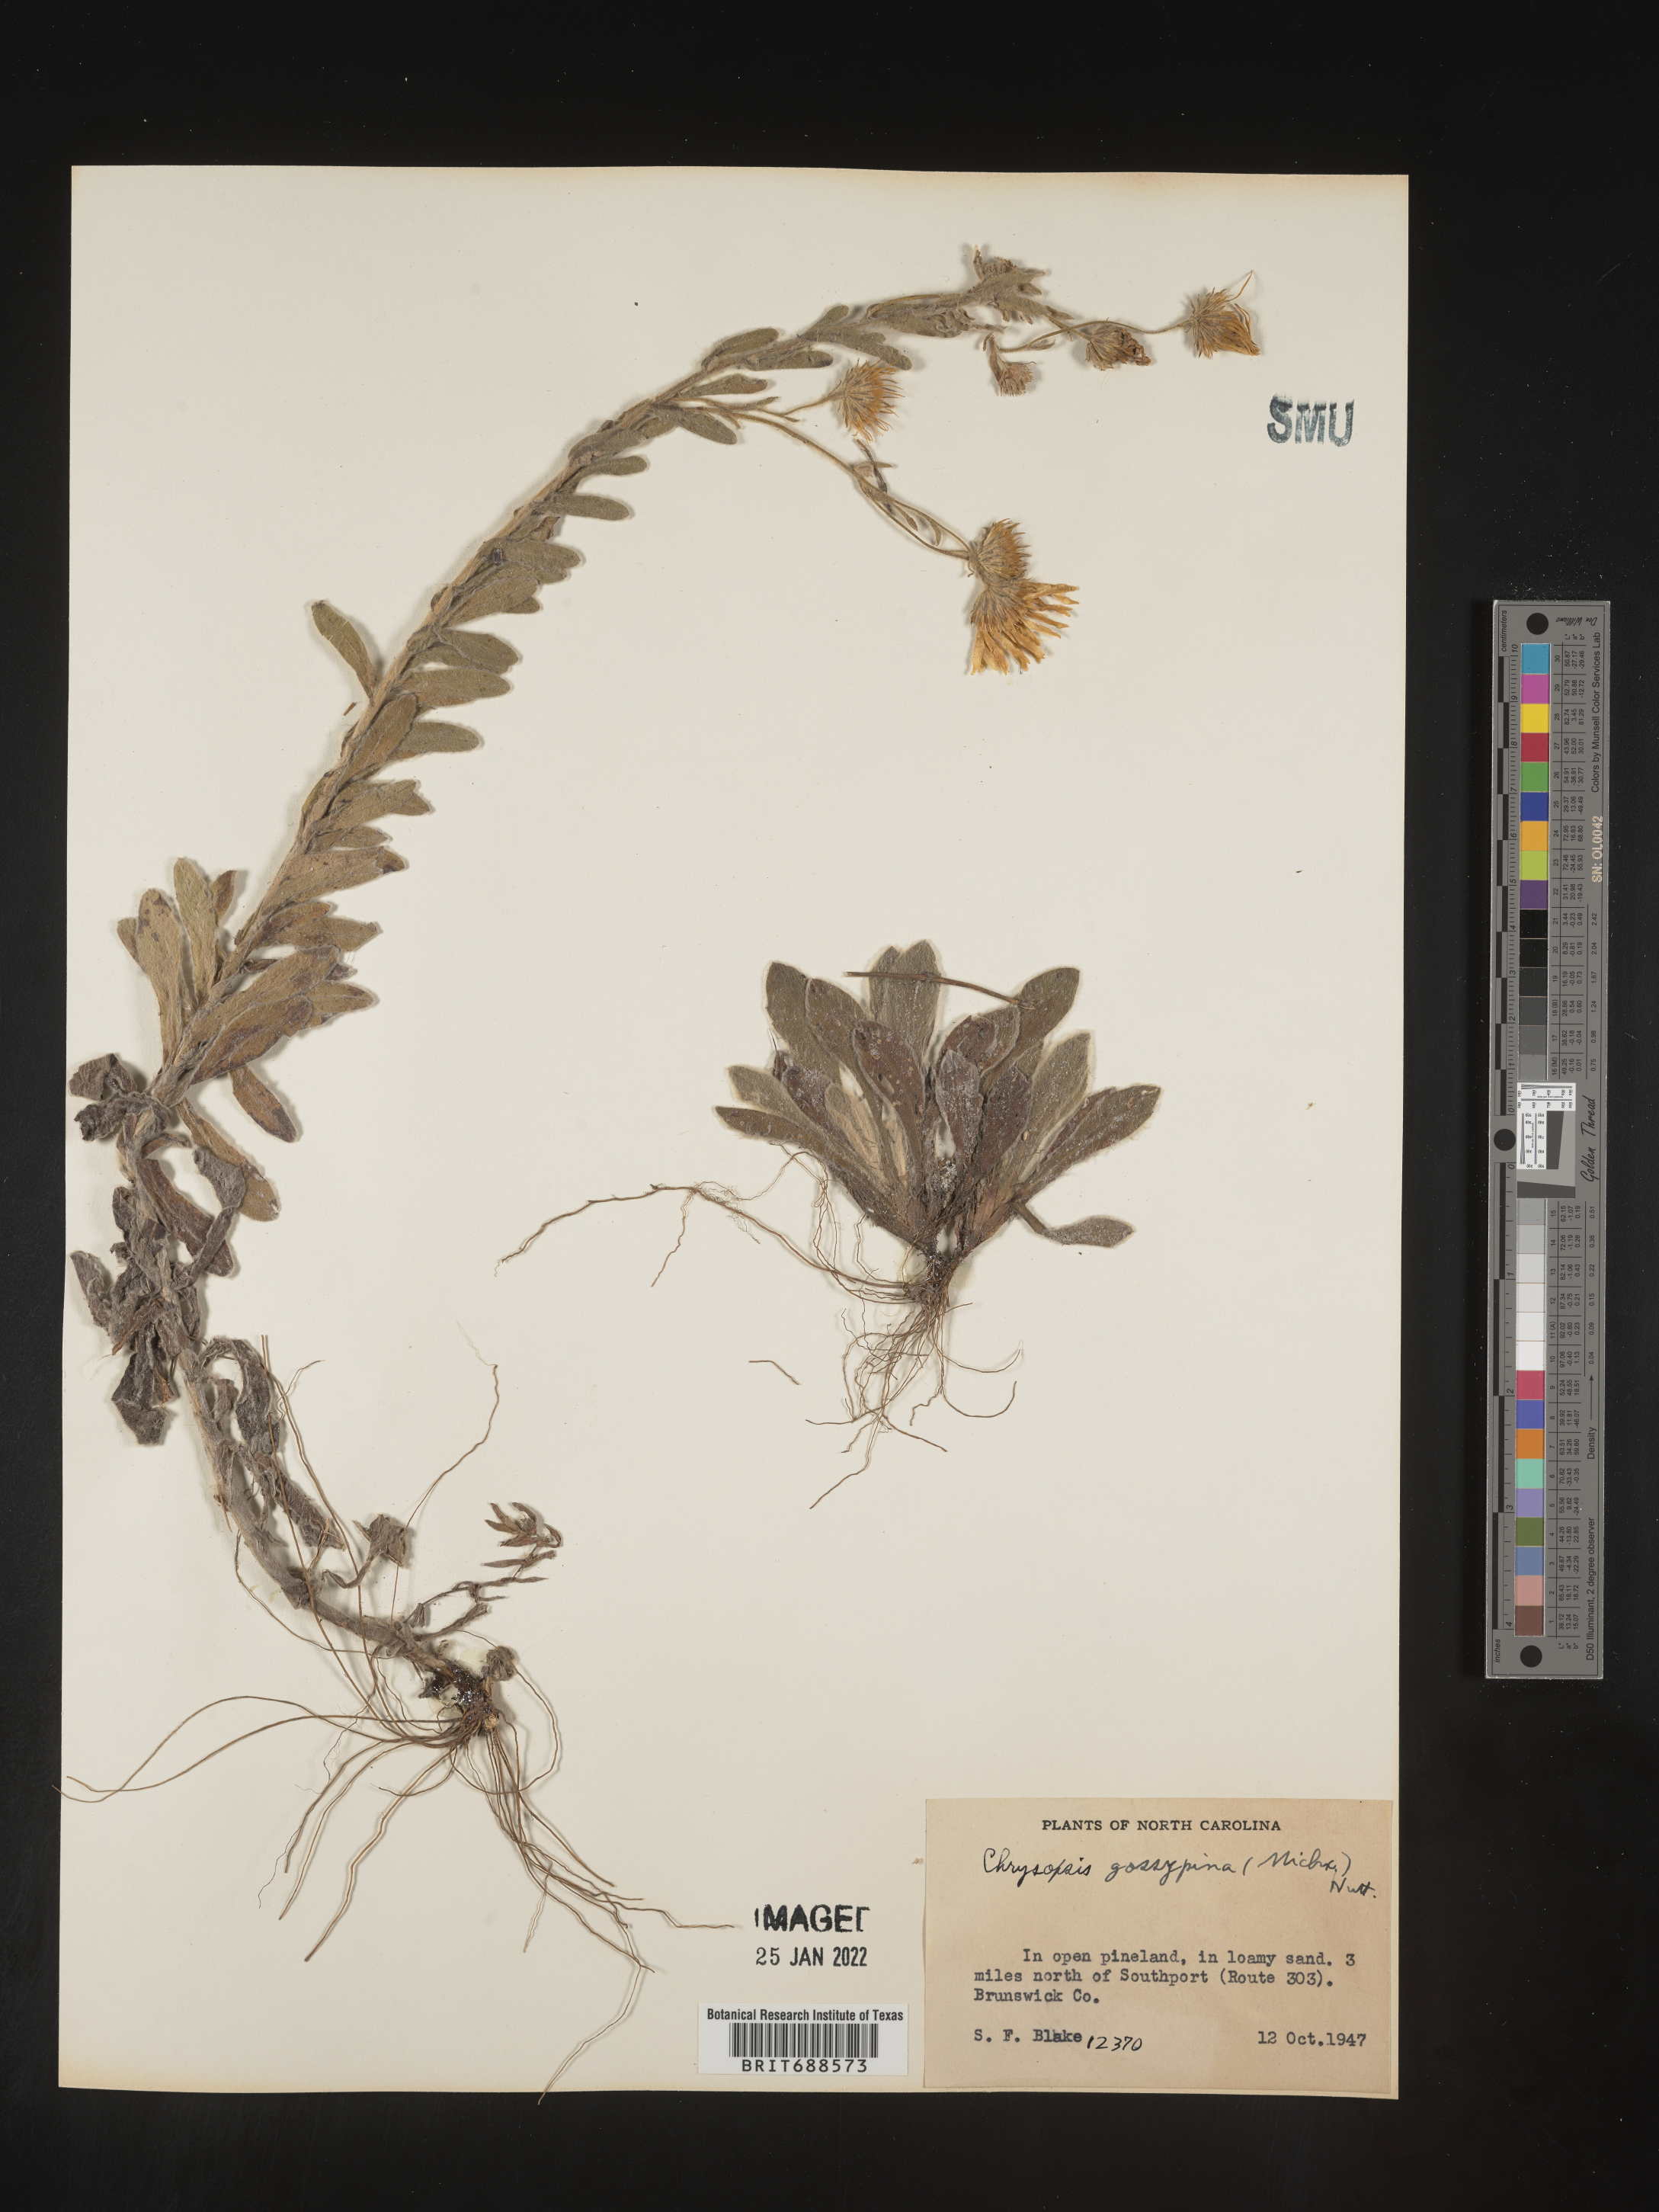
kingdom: Plantae
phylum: Tracheophyta
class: Magnoliopsida
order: Asterales
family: Asteraceae
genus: Chrysopsis
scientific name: Chrysopsis gossypina
